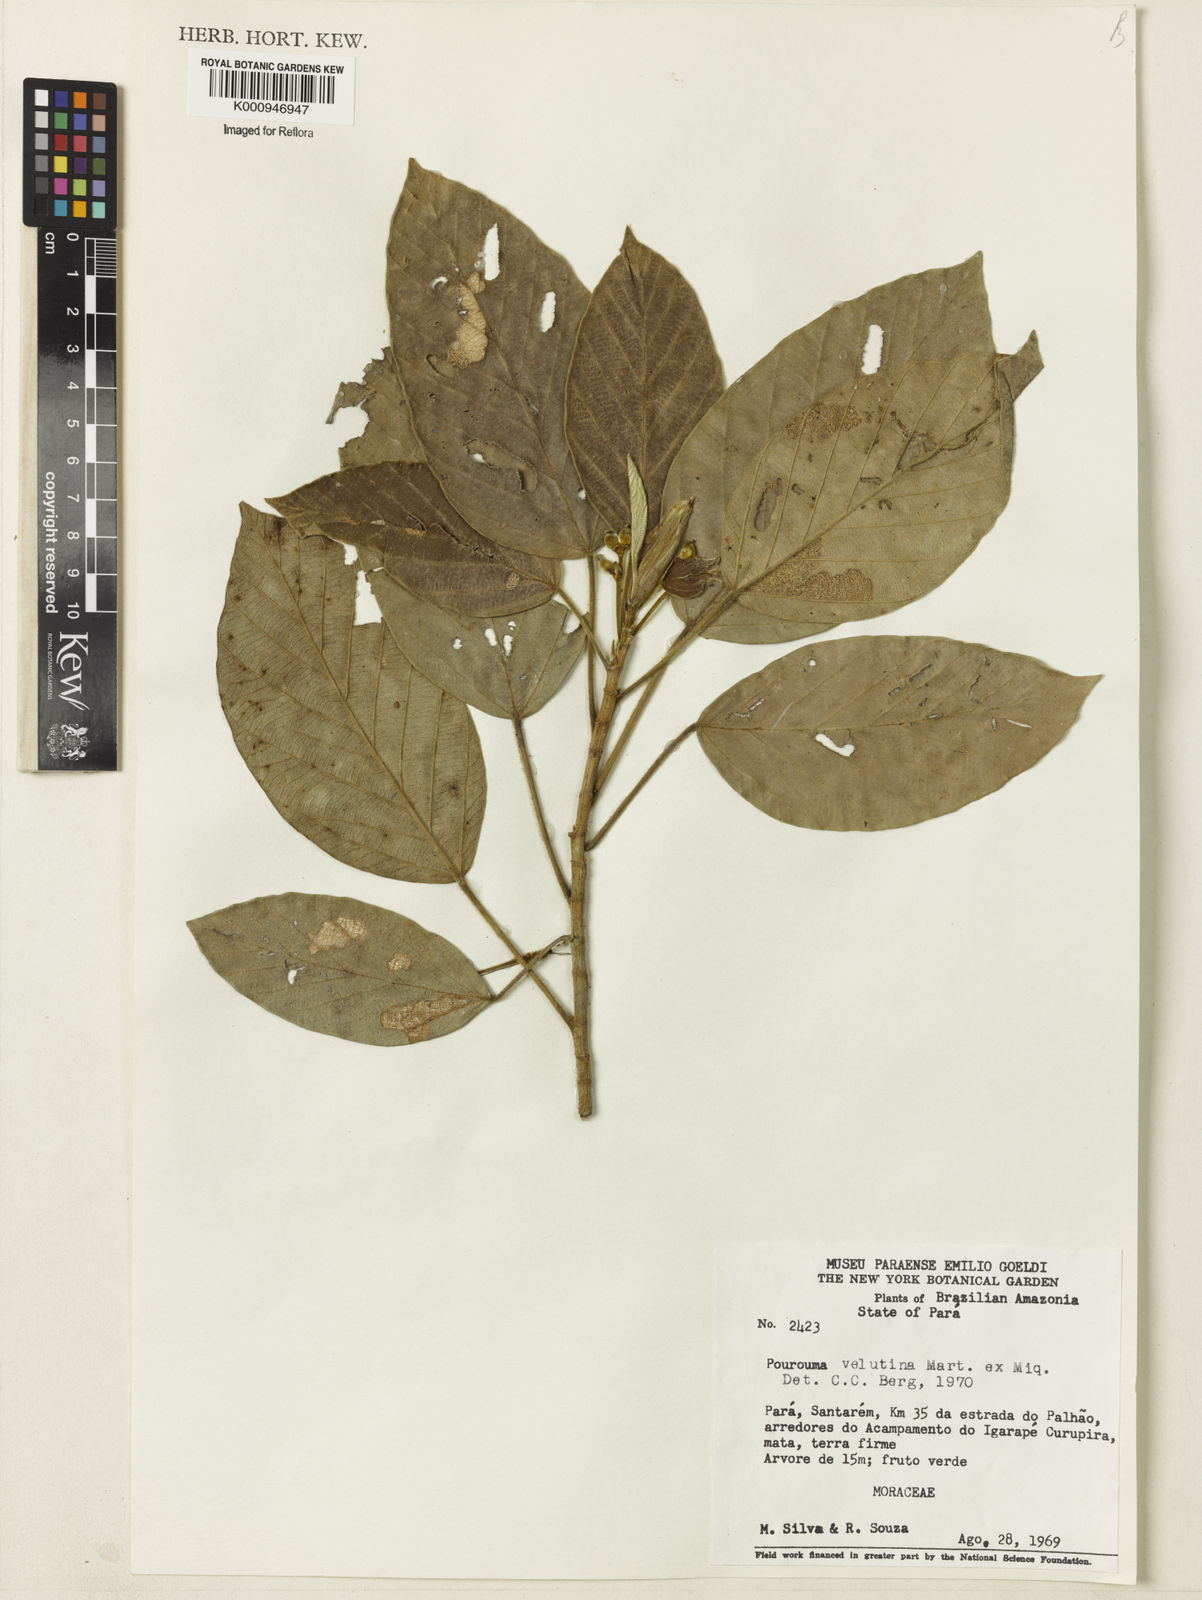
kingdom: Plantae
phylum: Tracheophyta
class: Magnoliopsida
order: Rosales
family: Urticaceae
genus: Pourouma
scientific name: Pourouma velutina
